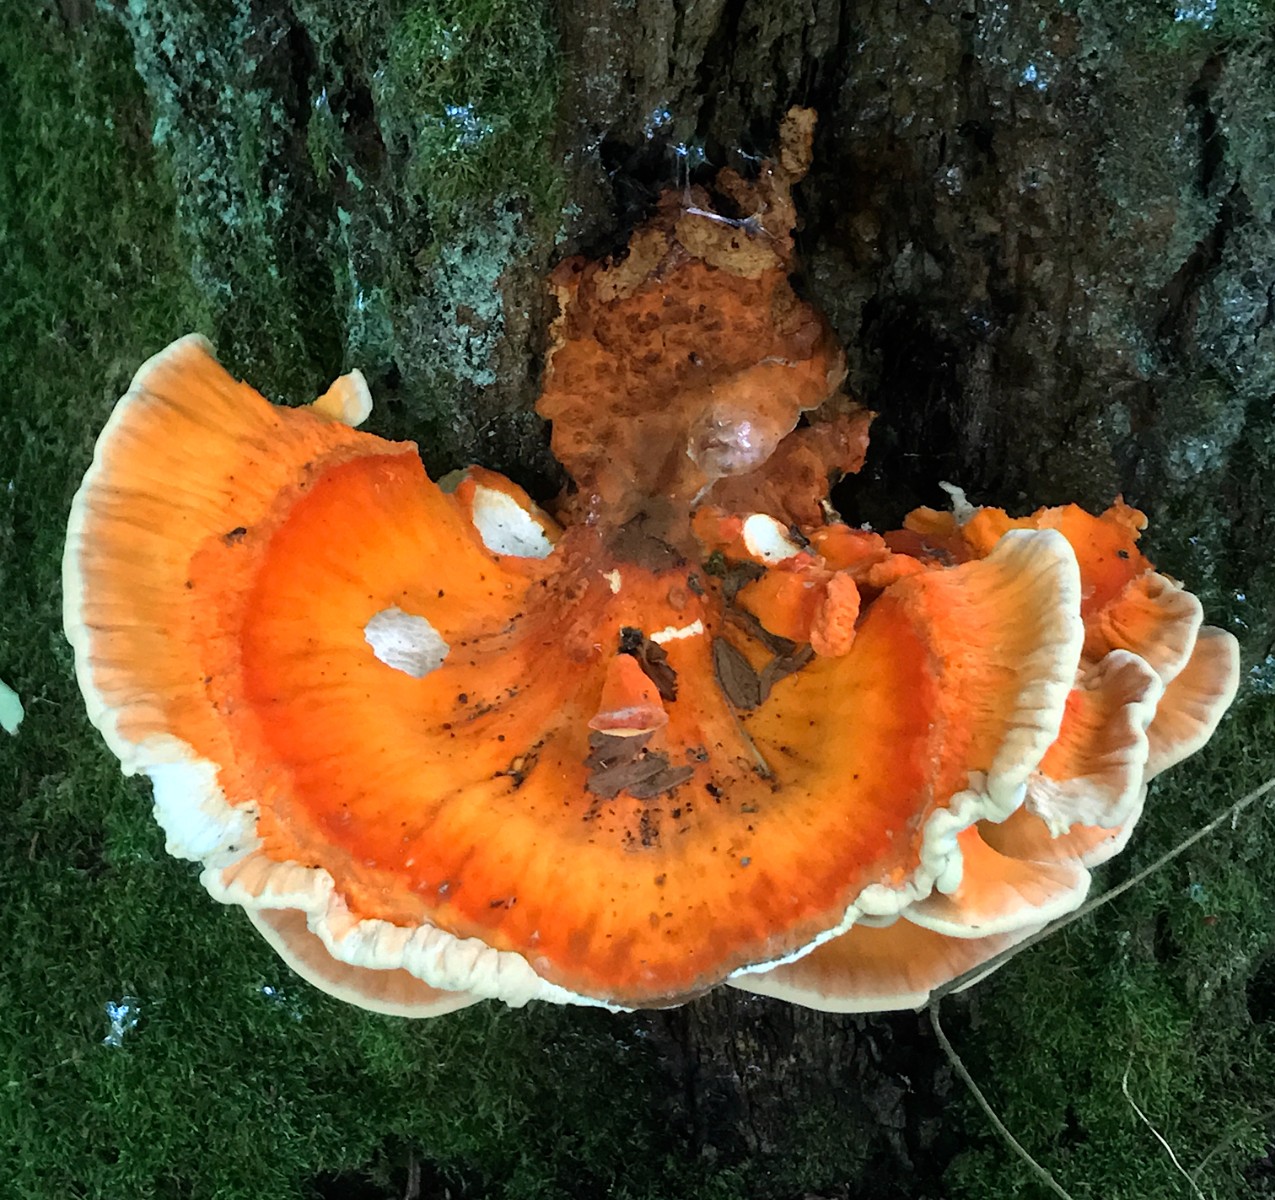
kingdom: Fungi
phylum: Basidiomycota
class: Agaricomycetes
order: Polyporales
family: Laetiporaceae
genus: Laetiporus
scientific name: Laetiporus sulphureus
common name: svovlporesvamp
